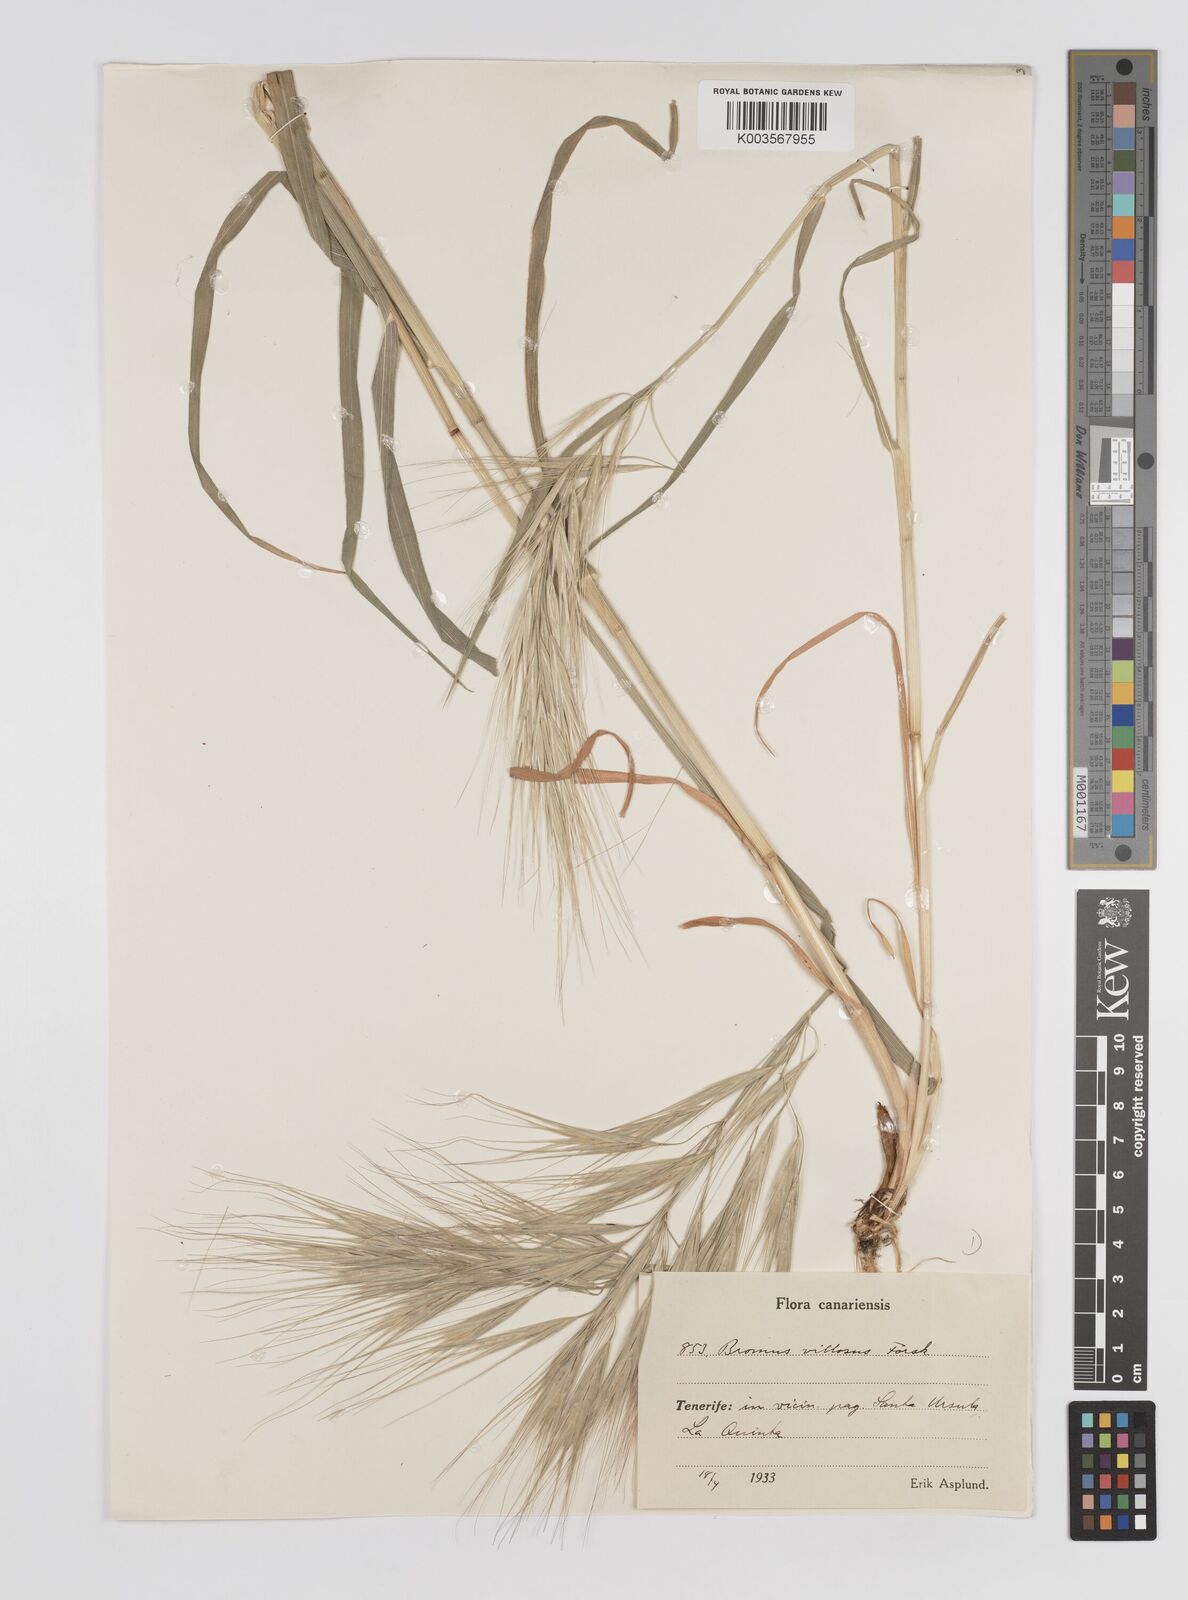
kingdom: Plantae
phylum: Tracheophyta
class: Liliopsida
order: Poales
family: Poaceae
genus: Bromus
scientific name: Bromus diandrus
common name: Ripgut brome
